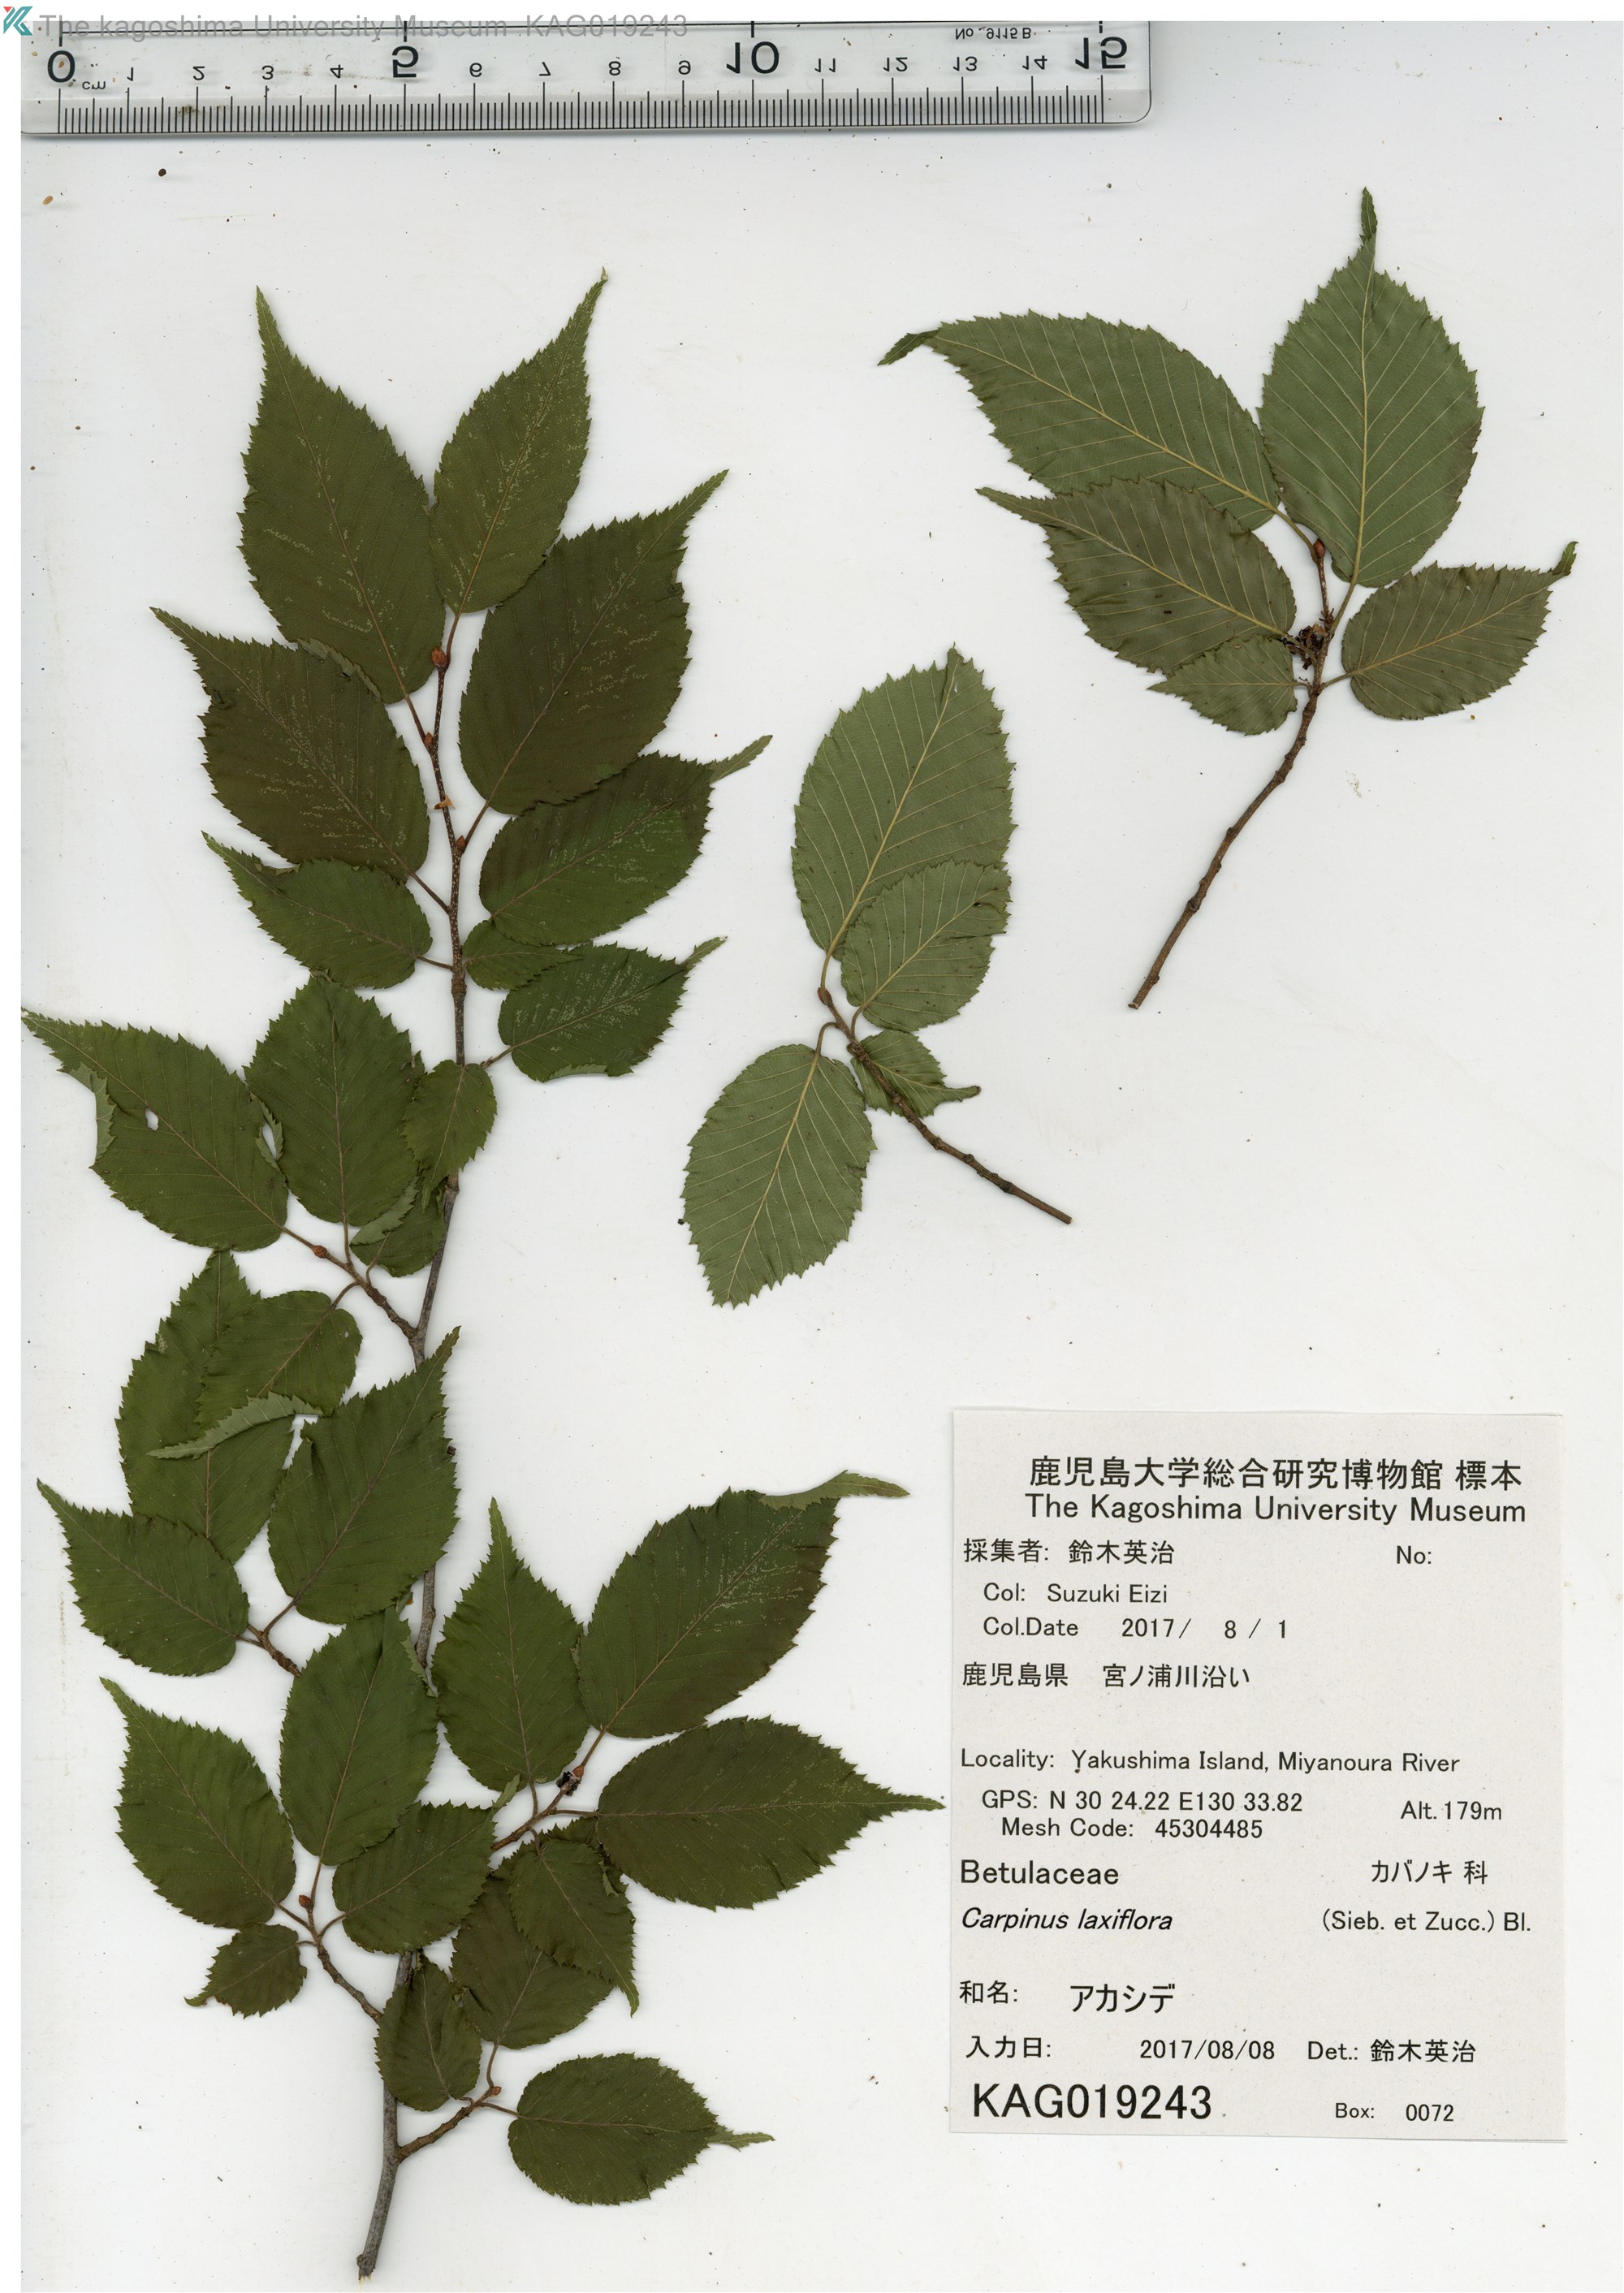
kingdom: Plantae
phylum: Tracheophyta
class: Magnoliopsida
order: Fagales
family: Betulaceae
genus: Carpinus
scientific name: Carpinus laxiflora
